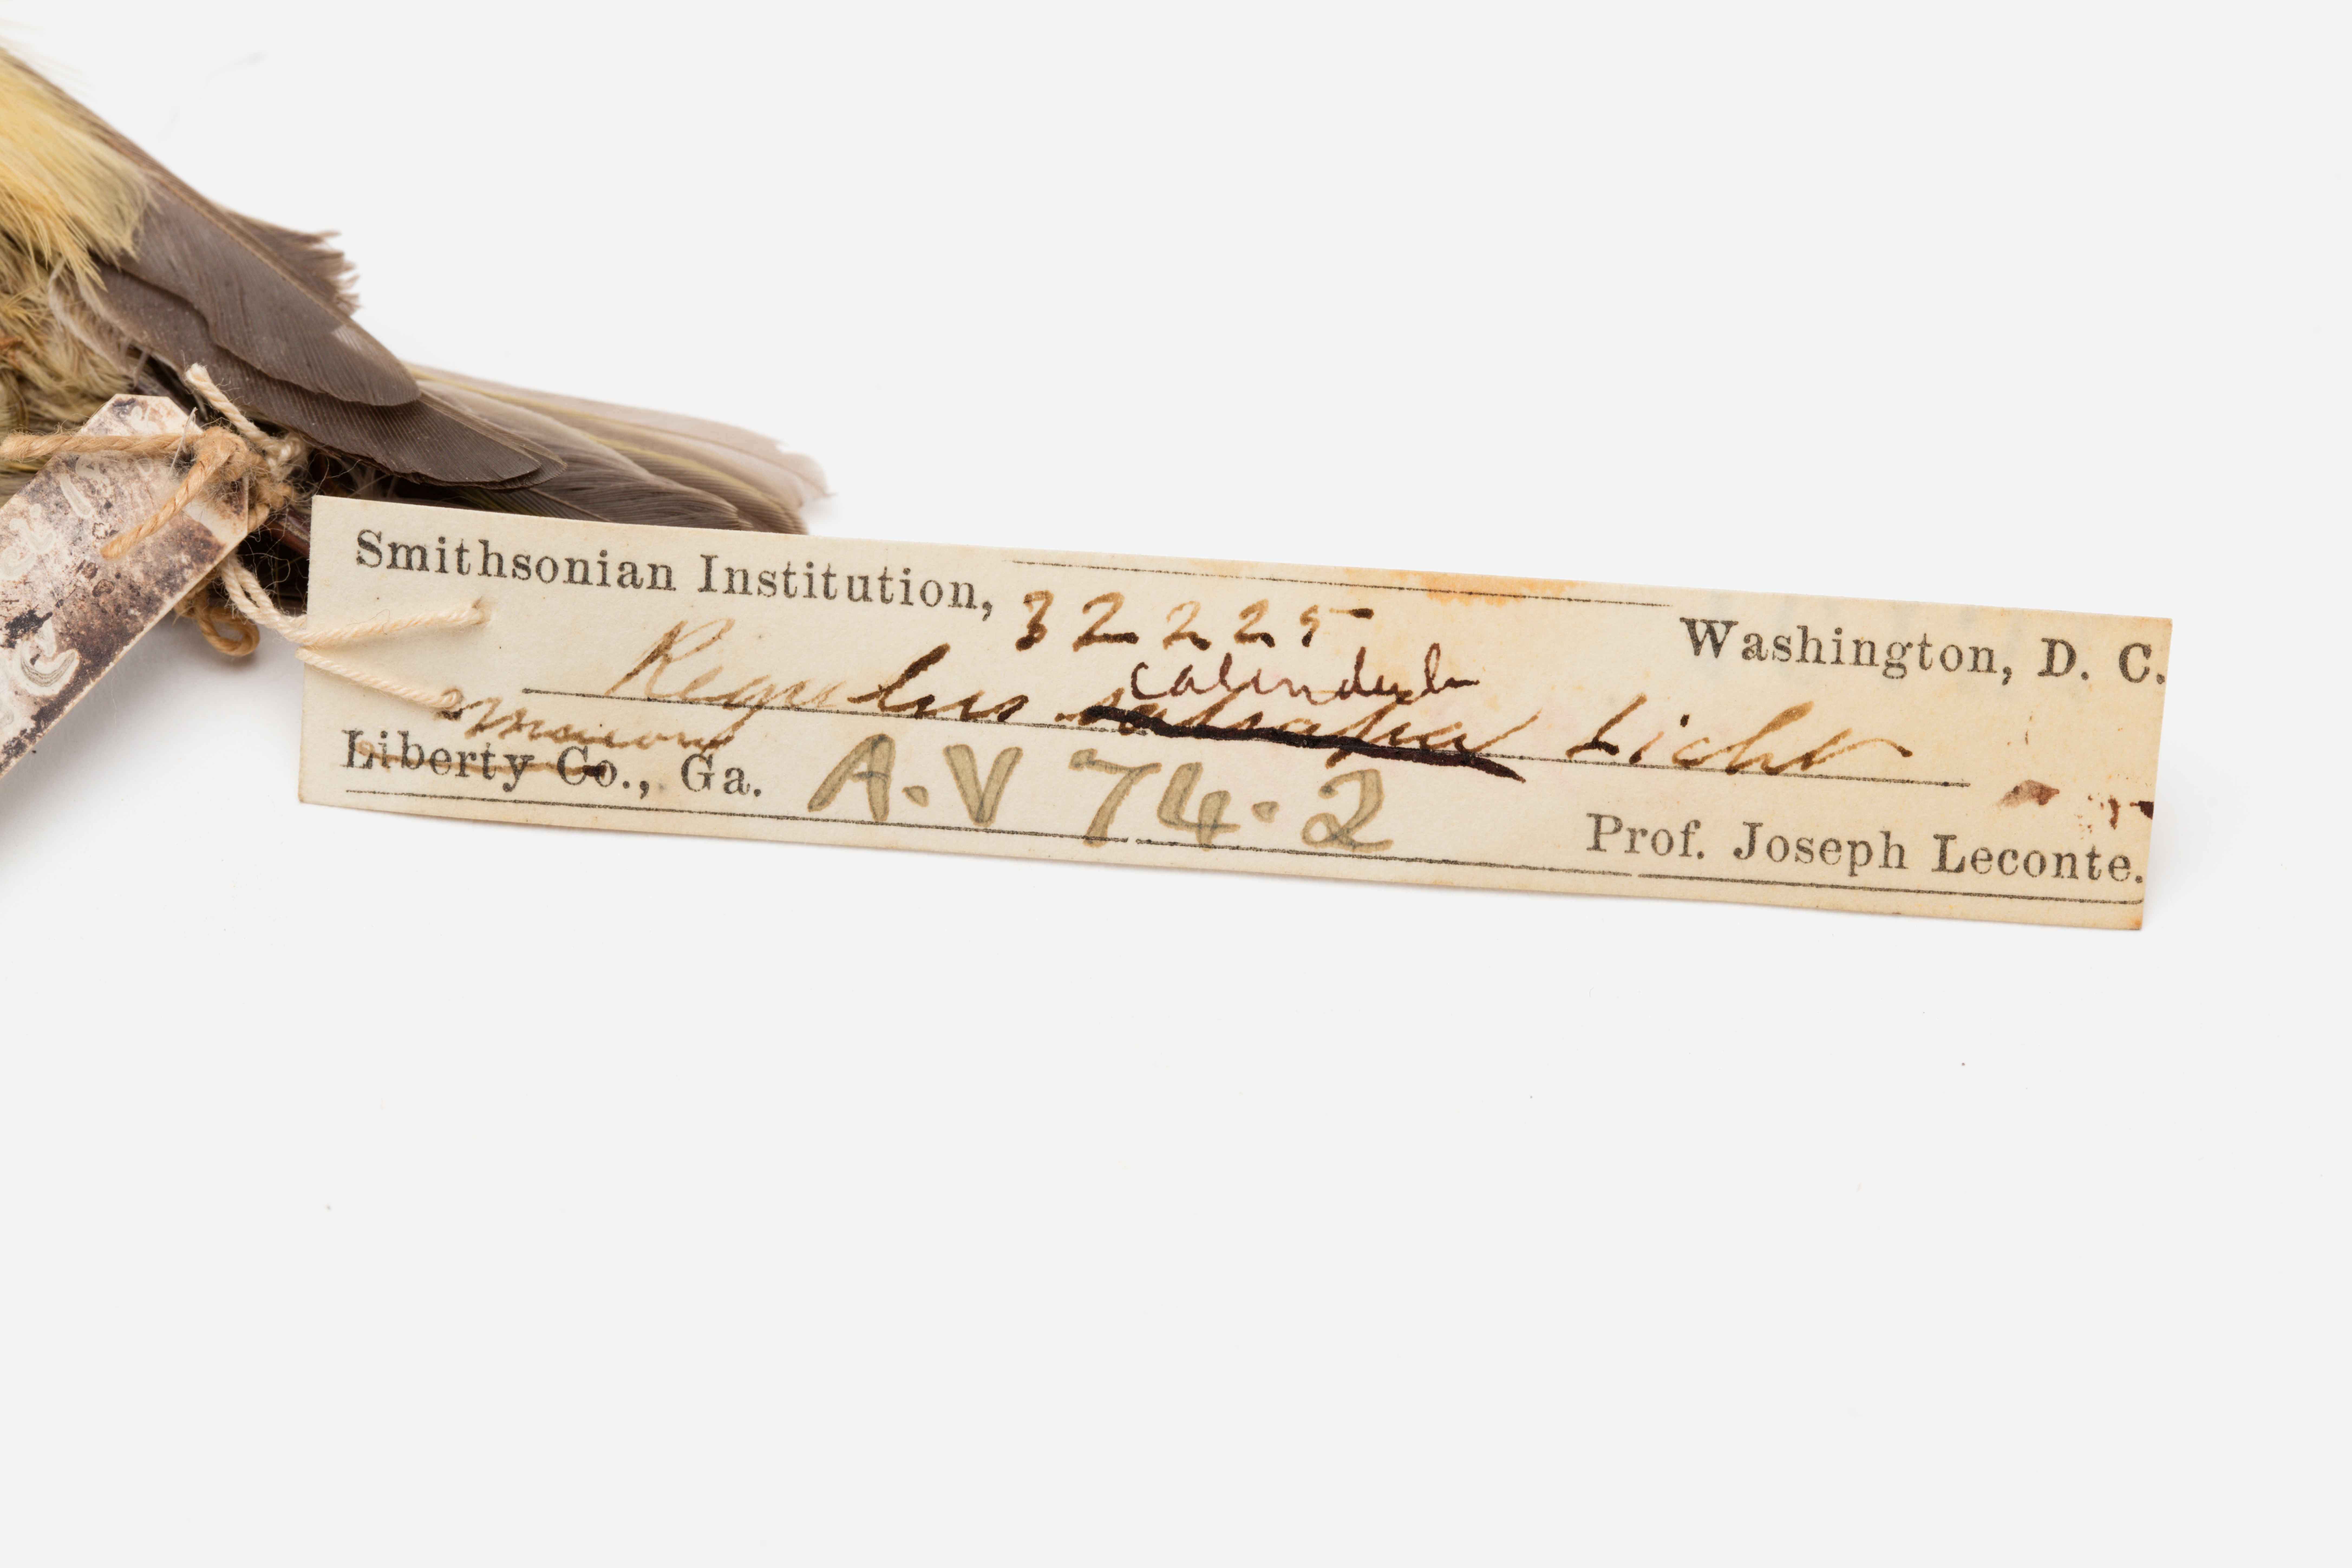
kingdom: Animalia
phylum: Chordata
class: Aves
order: Passeriformes
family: Regulidae
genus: Regulus
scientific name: Regulus calendula
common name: Ruby-crowned kinglet
